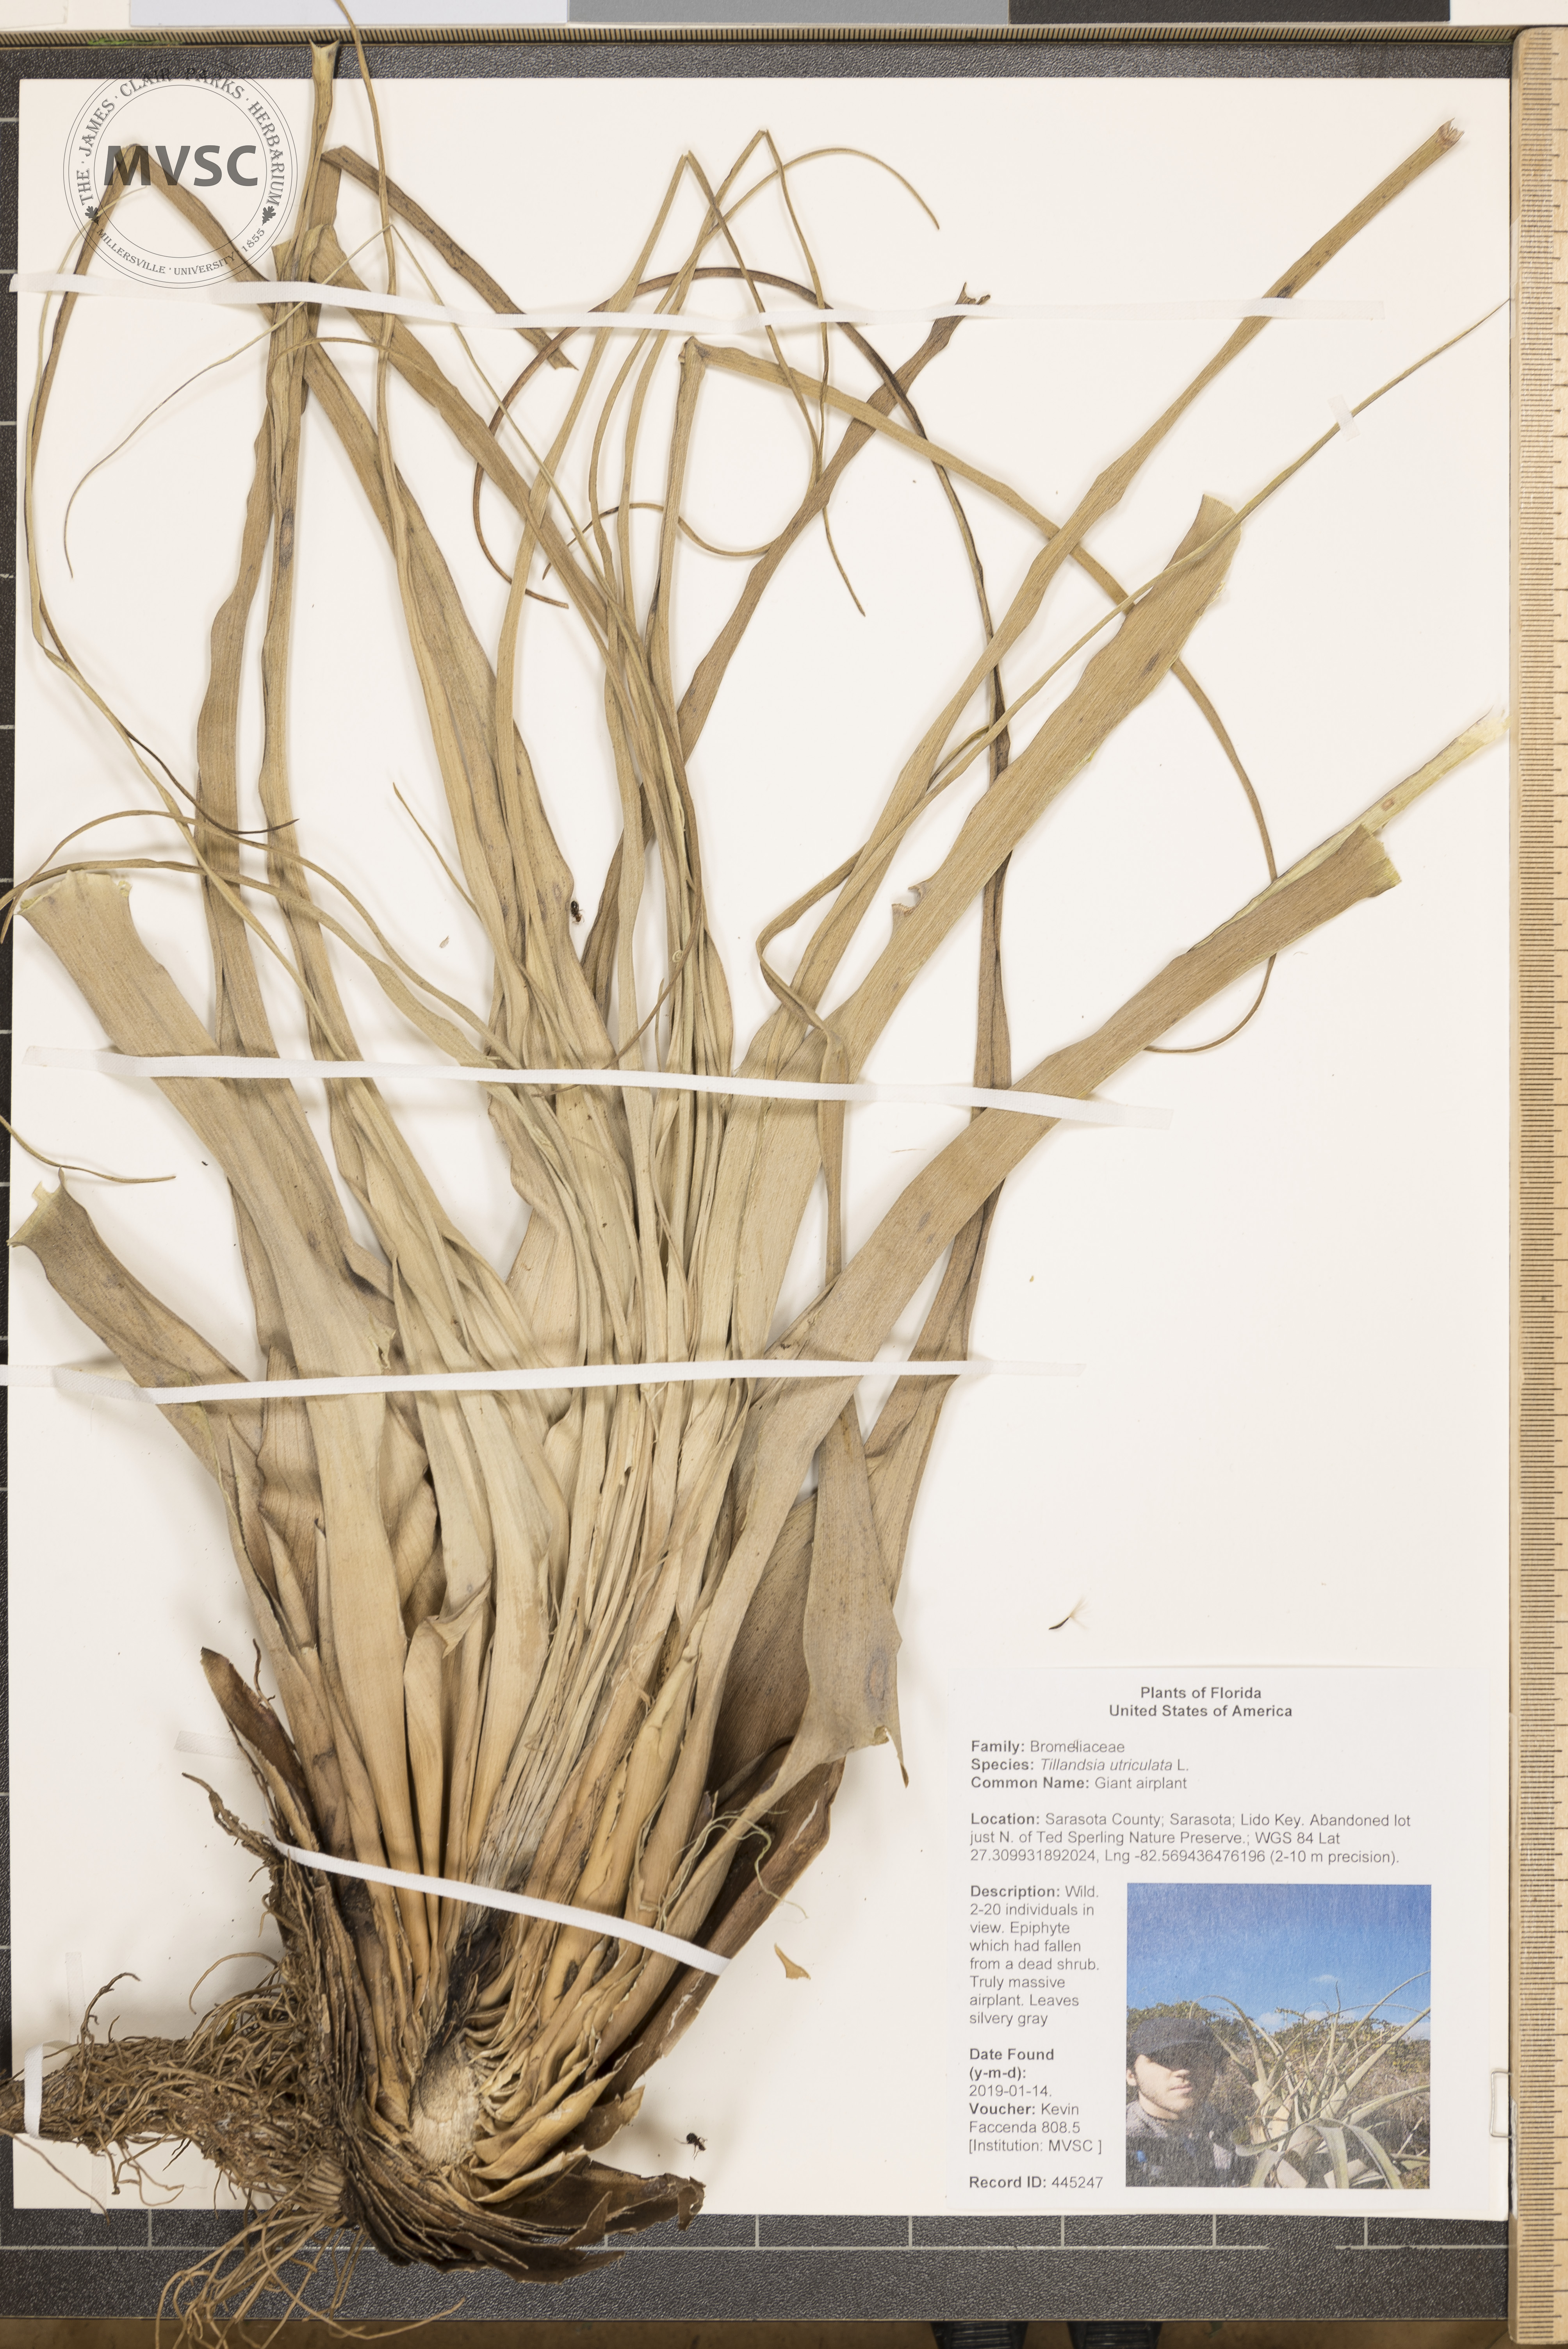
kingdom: Plantae
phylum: Tracheophyta
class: Liliopsida
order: Poales
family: Bromeliaceae
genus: Tillandsia
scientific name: Tillandsia utriculata
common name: Giant airplant
